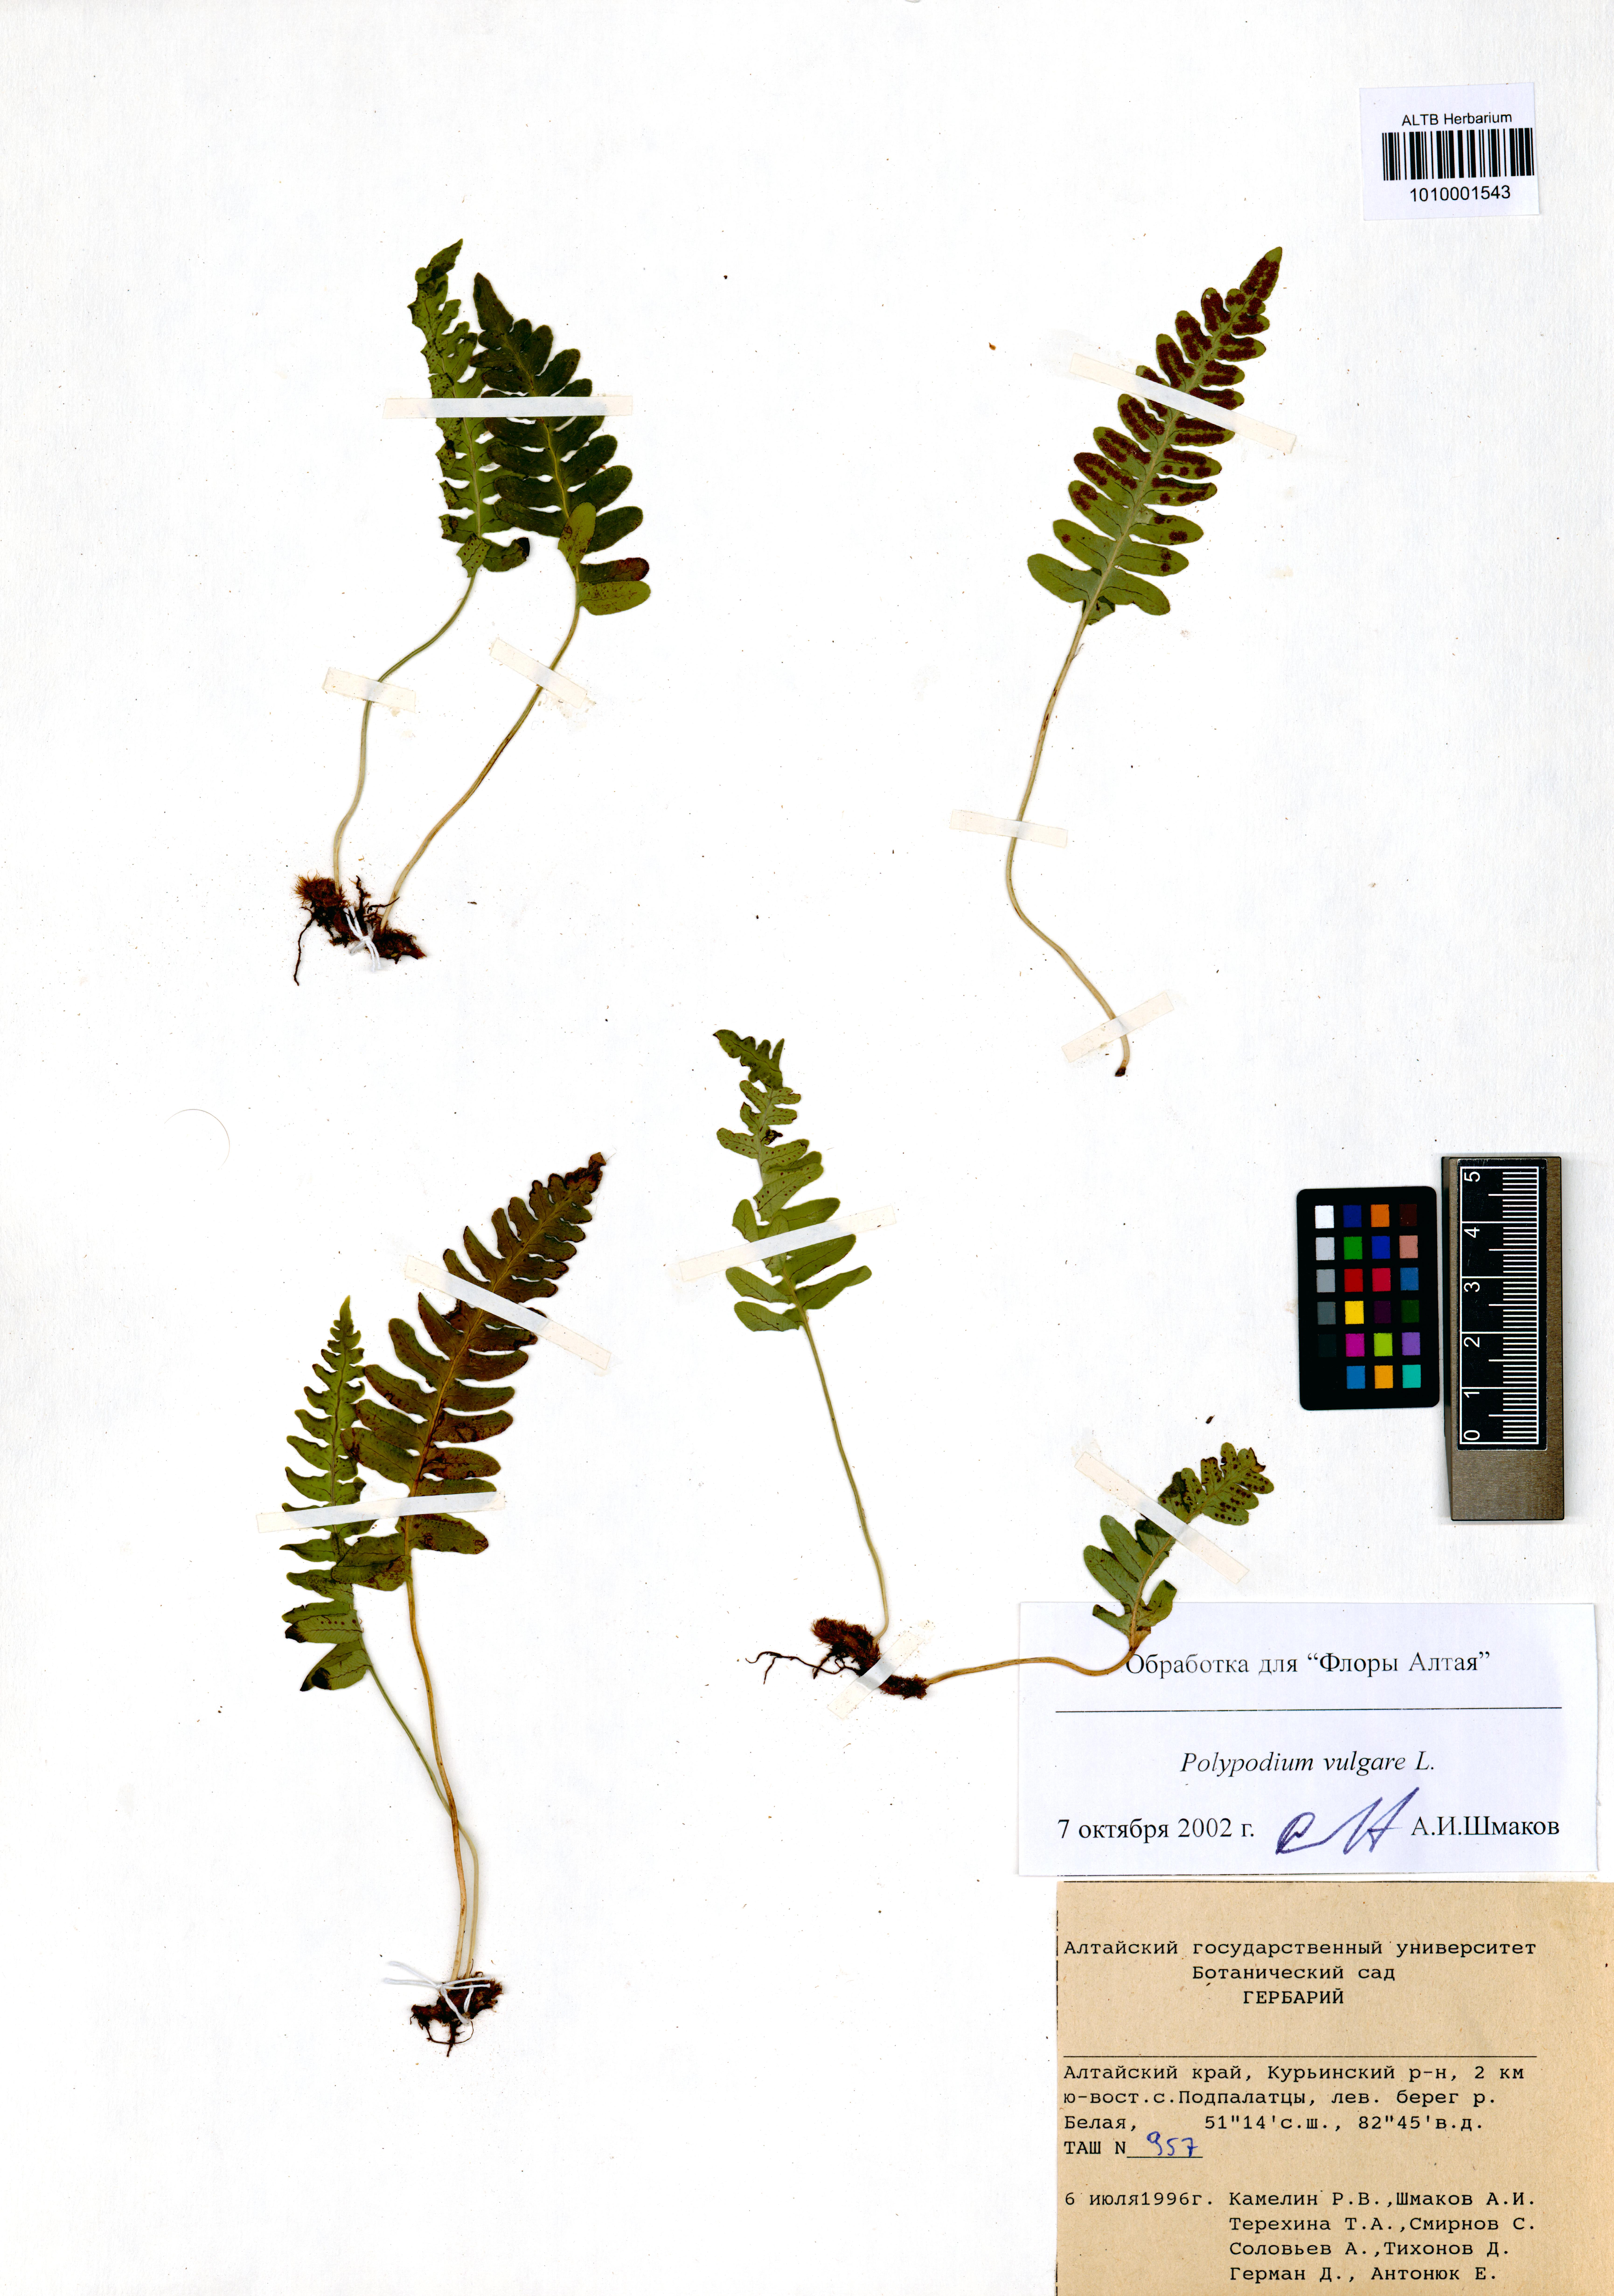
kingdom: Plantae
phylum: Tracheophyta
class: Polypodiopsida
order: Polypodiales
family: Polypodiaceae
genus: Polypodium
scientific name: Polypodium vulgare
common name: Common polypody
